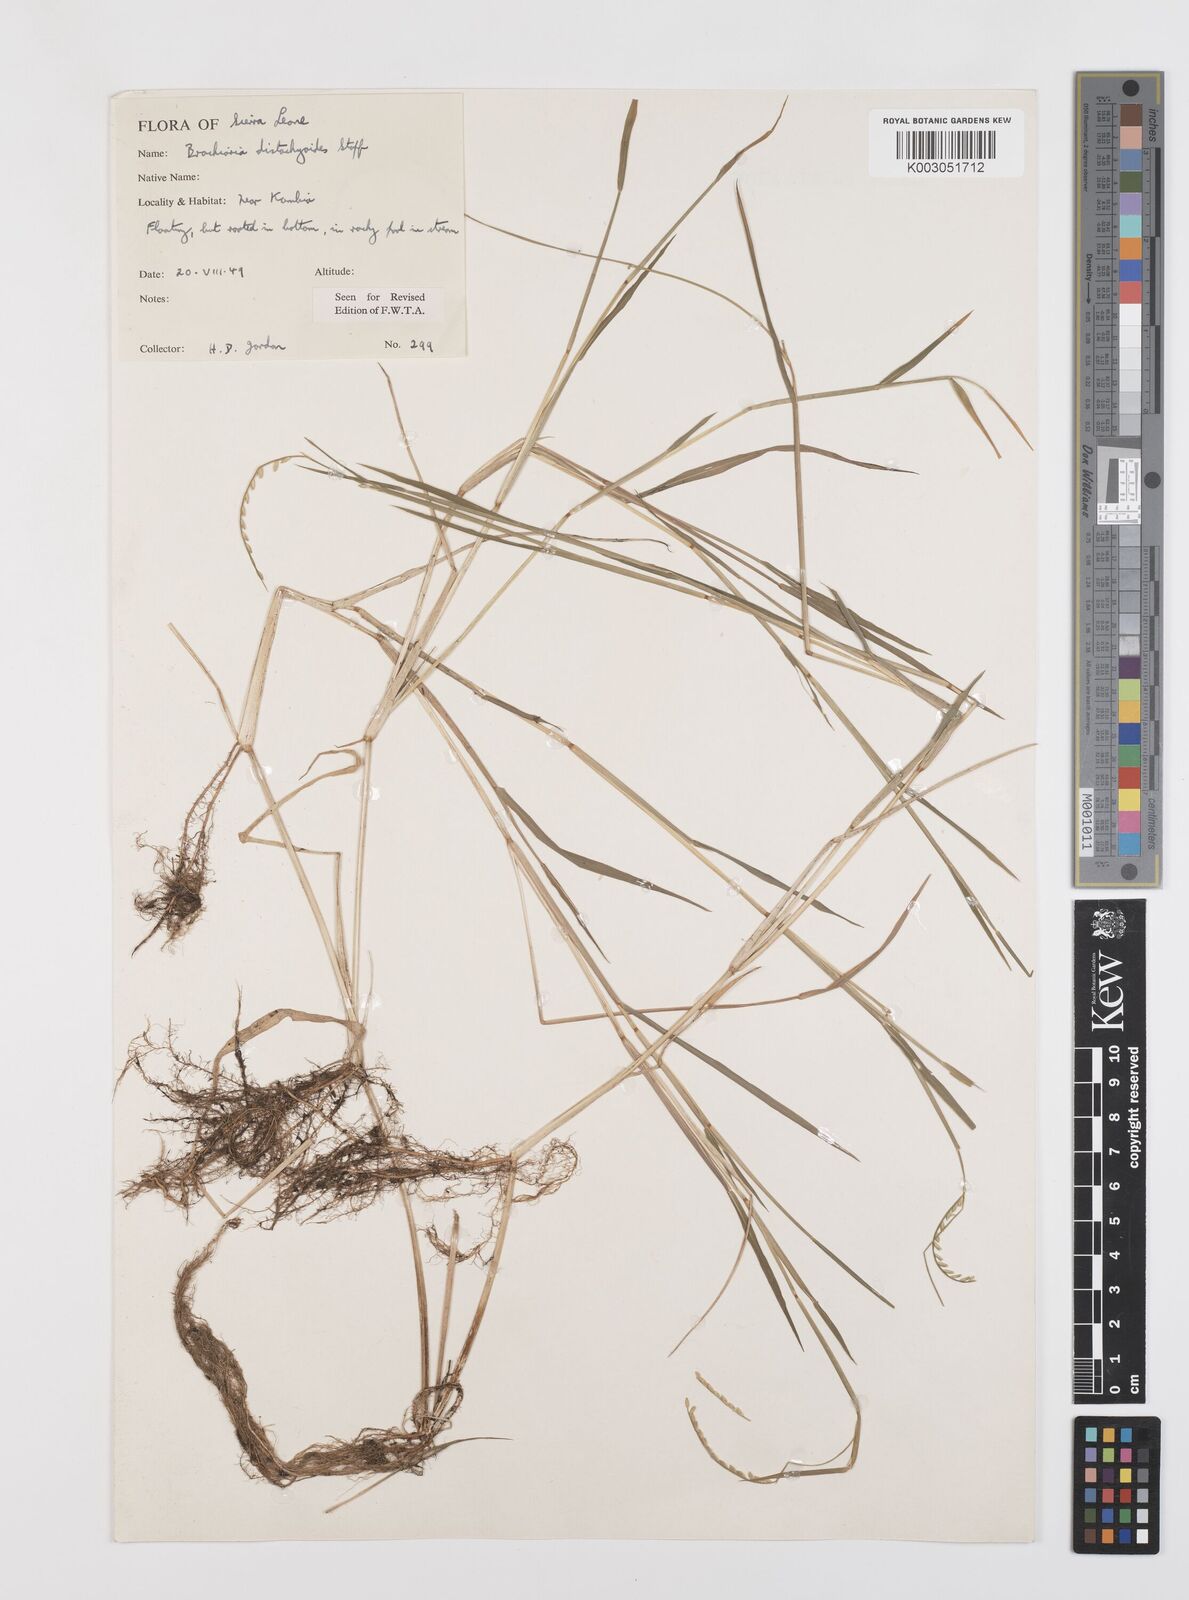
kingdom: Plantae
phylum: Tracheophyta
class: Liliopsida
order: Poales
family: Poaceae
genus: Urochloa
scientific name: Urochloa distachyoides
